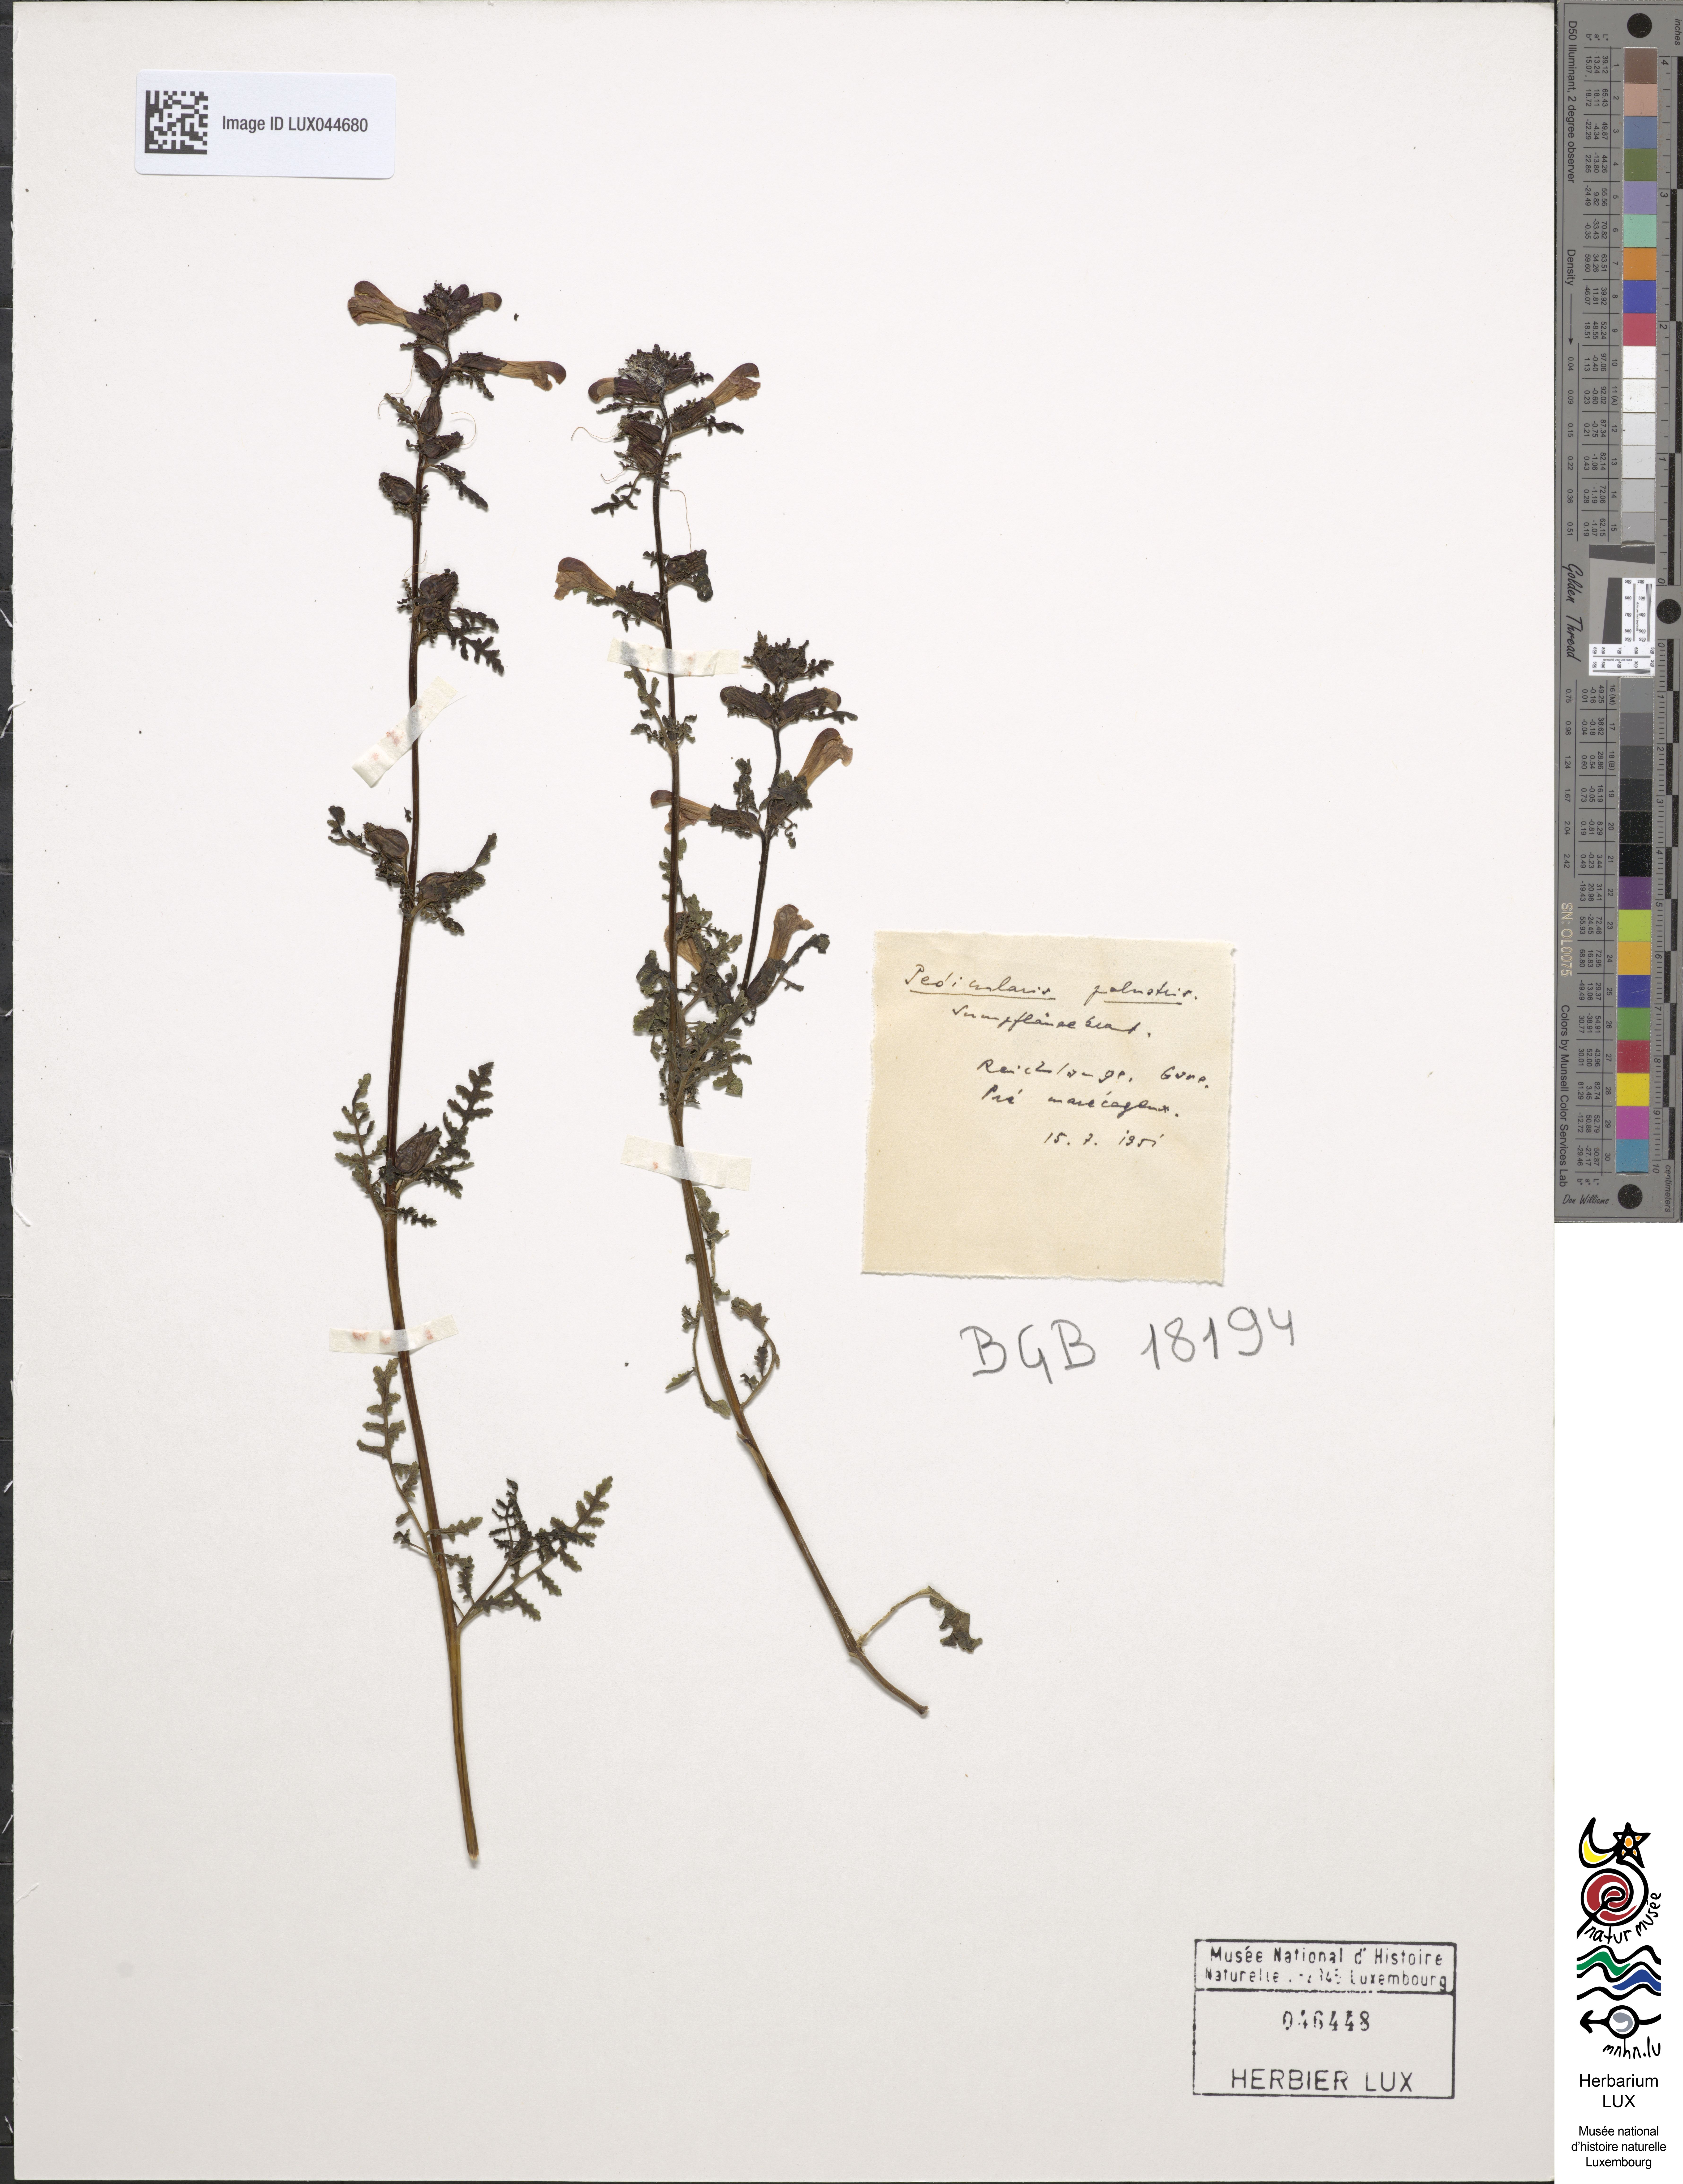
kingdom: Plantae
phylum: Tracheophyta
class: Magnoliopsida
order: Lamiales
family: Orobanchaceae
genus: Pedicularis
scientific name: Pedicularis palustris
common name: Marsh lousewort
